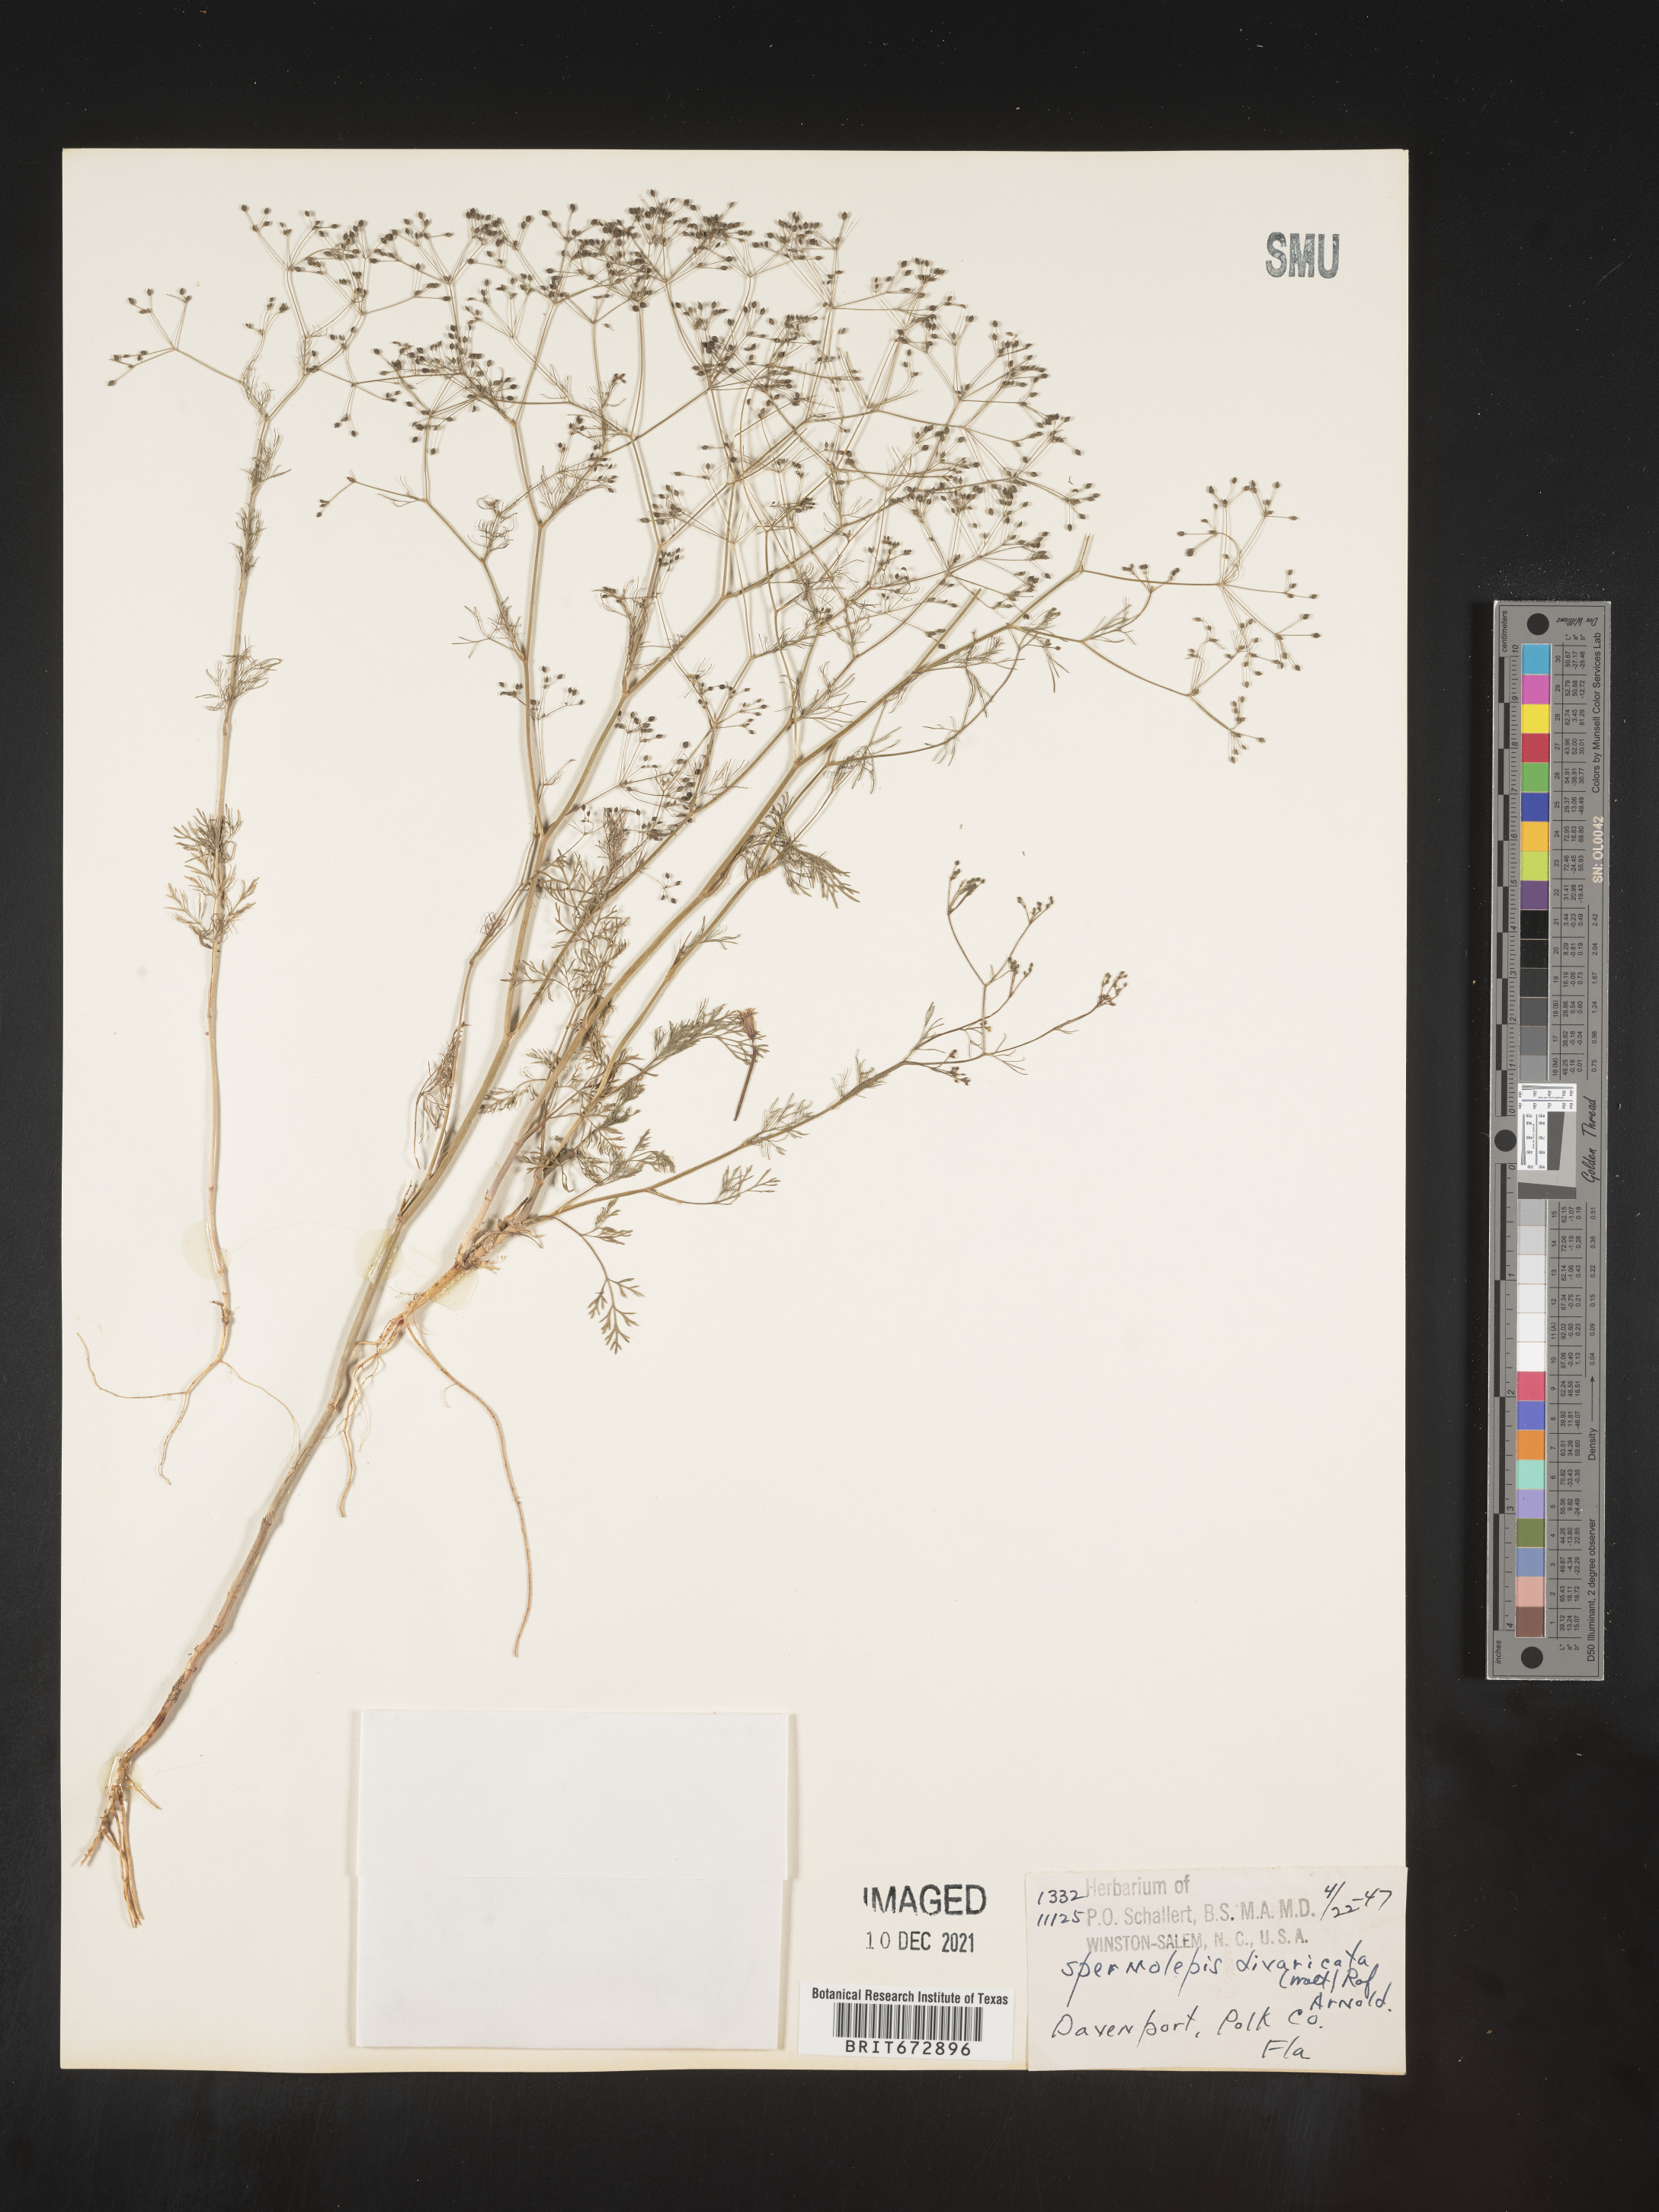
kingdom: Plantae
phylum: Tracheophyta
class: Magnoliopsida
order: Apiales
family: Apiaceae
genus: Spermolepis
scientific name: Spermolepis divaricata
